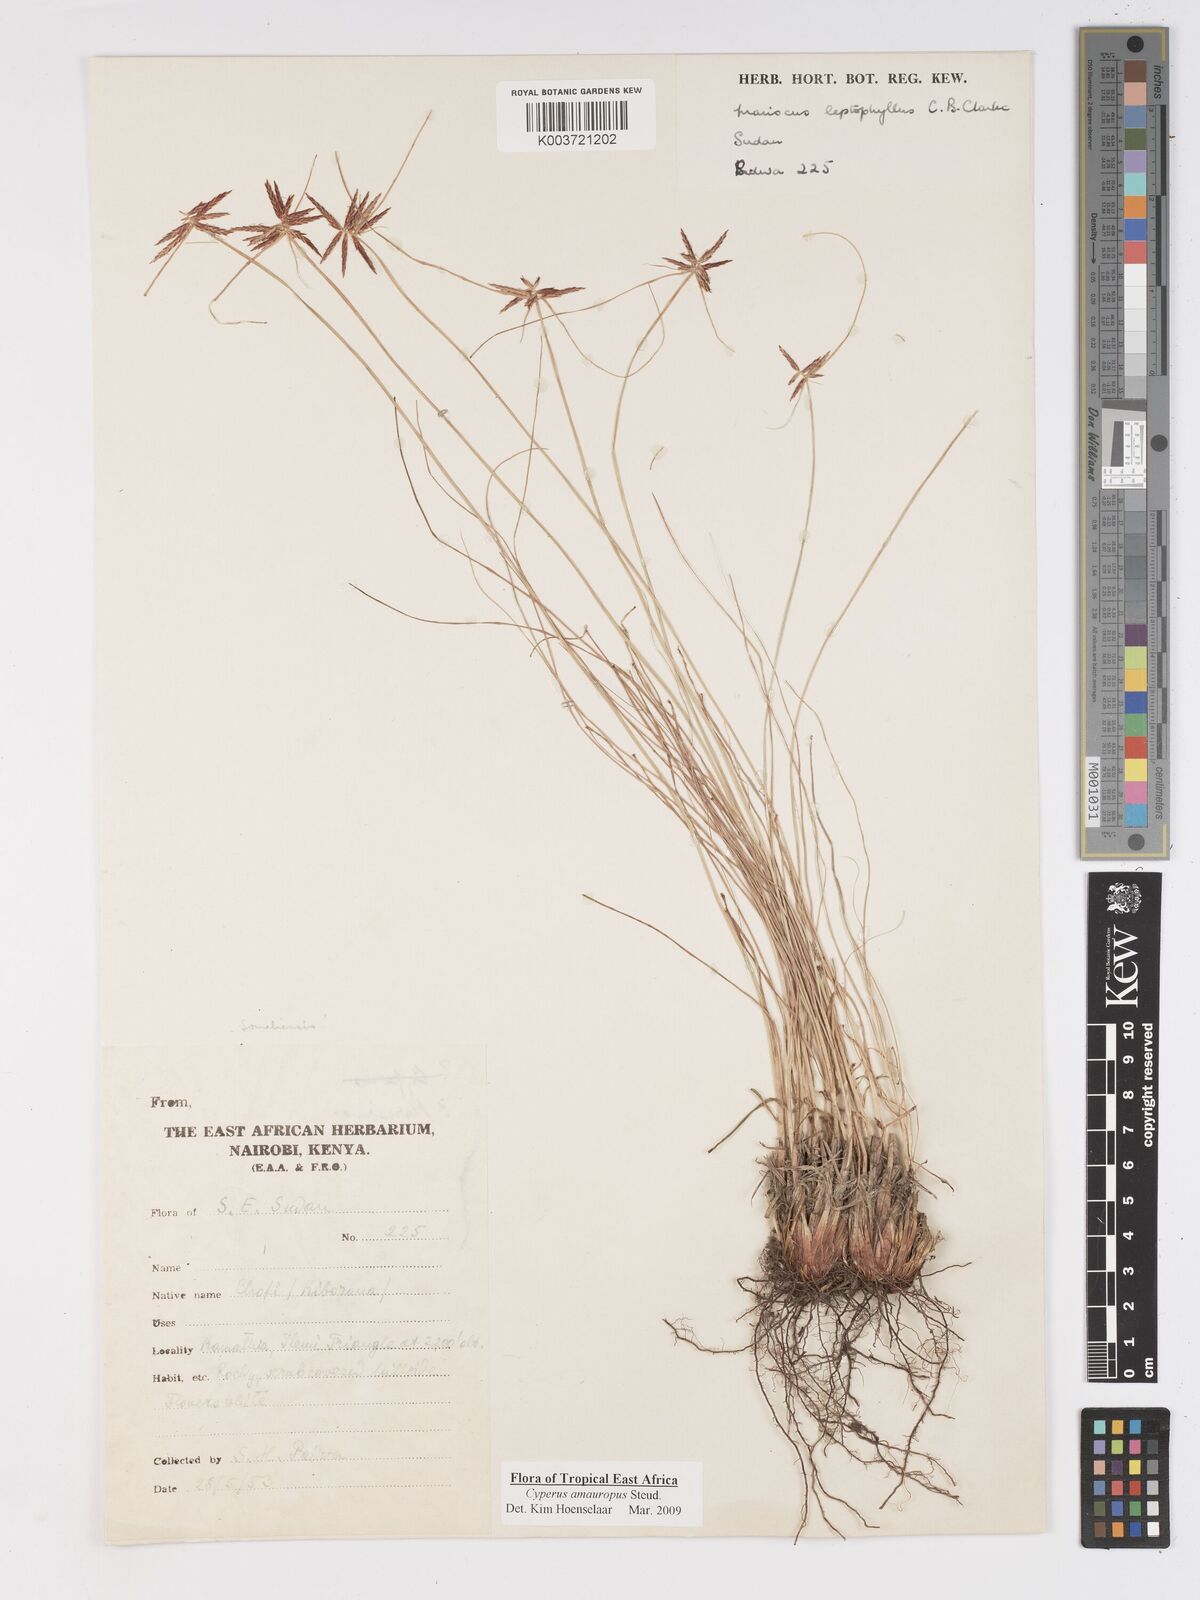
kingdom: Plantae
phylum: Tracheophyta
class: Liliopsida
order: Poales
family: Cyperaceae
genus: Cyperus
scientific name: Cyperus amauropus
